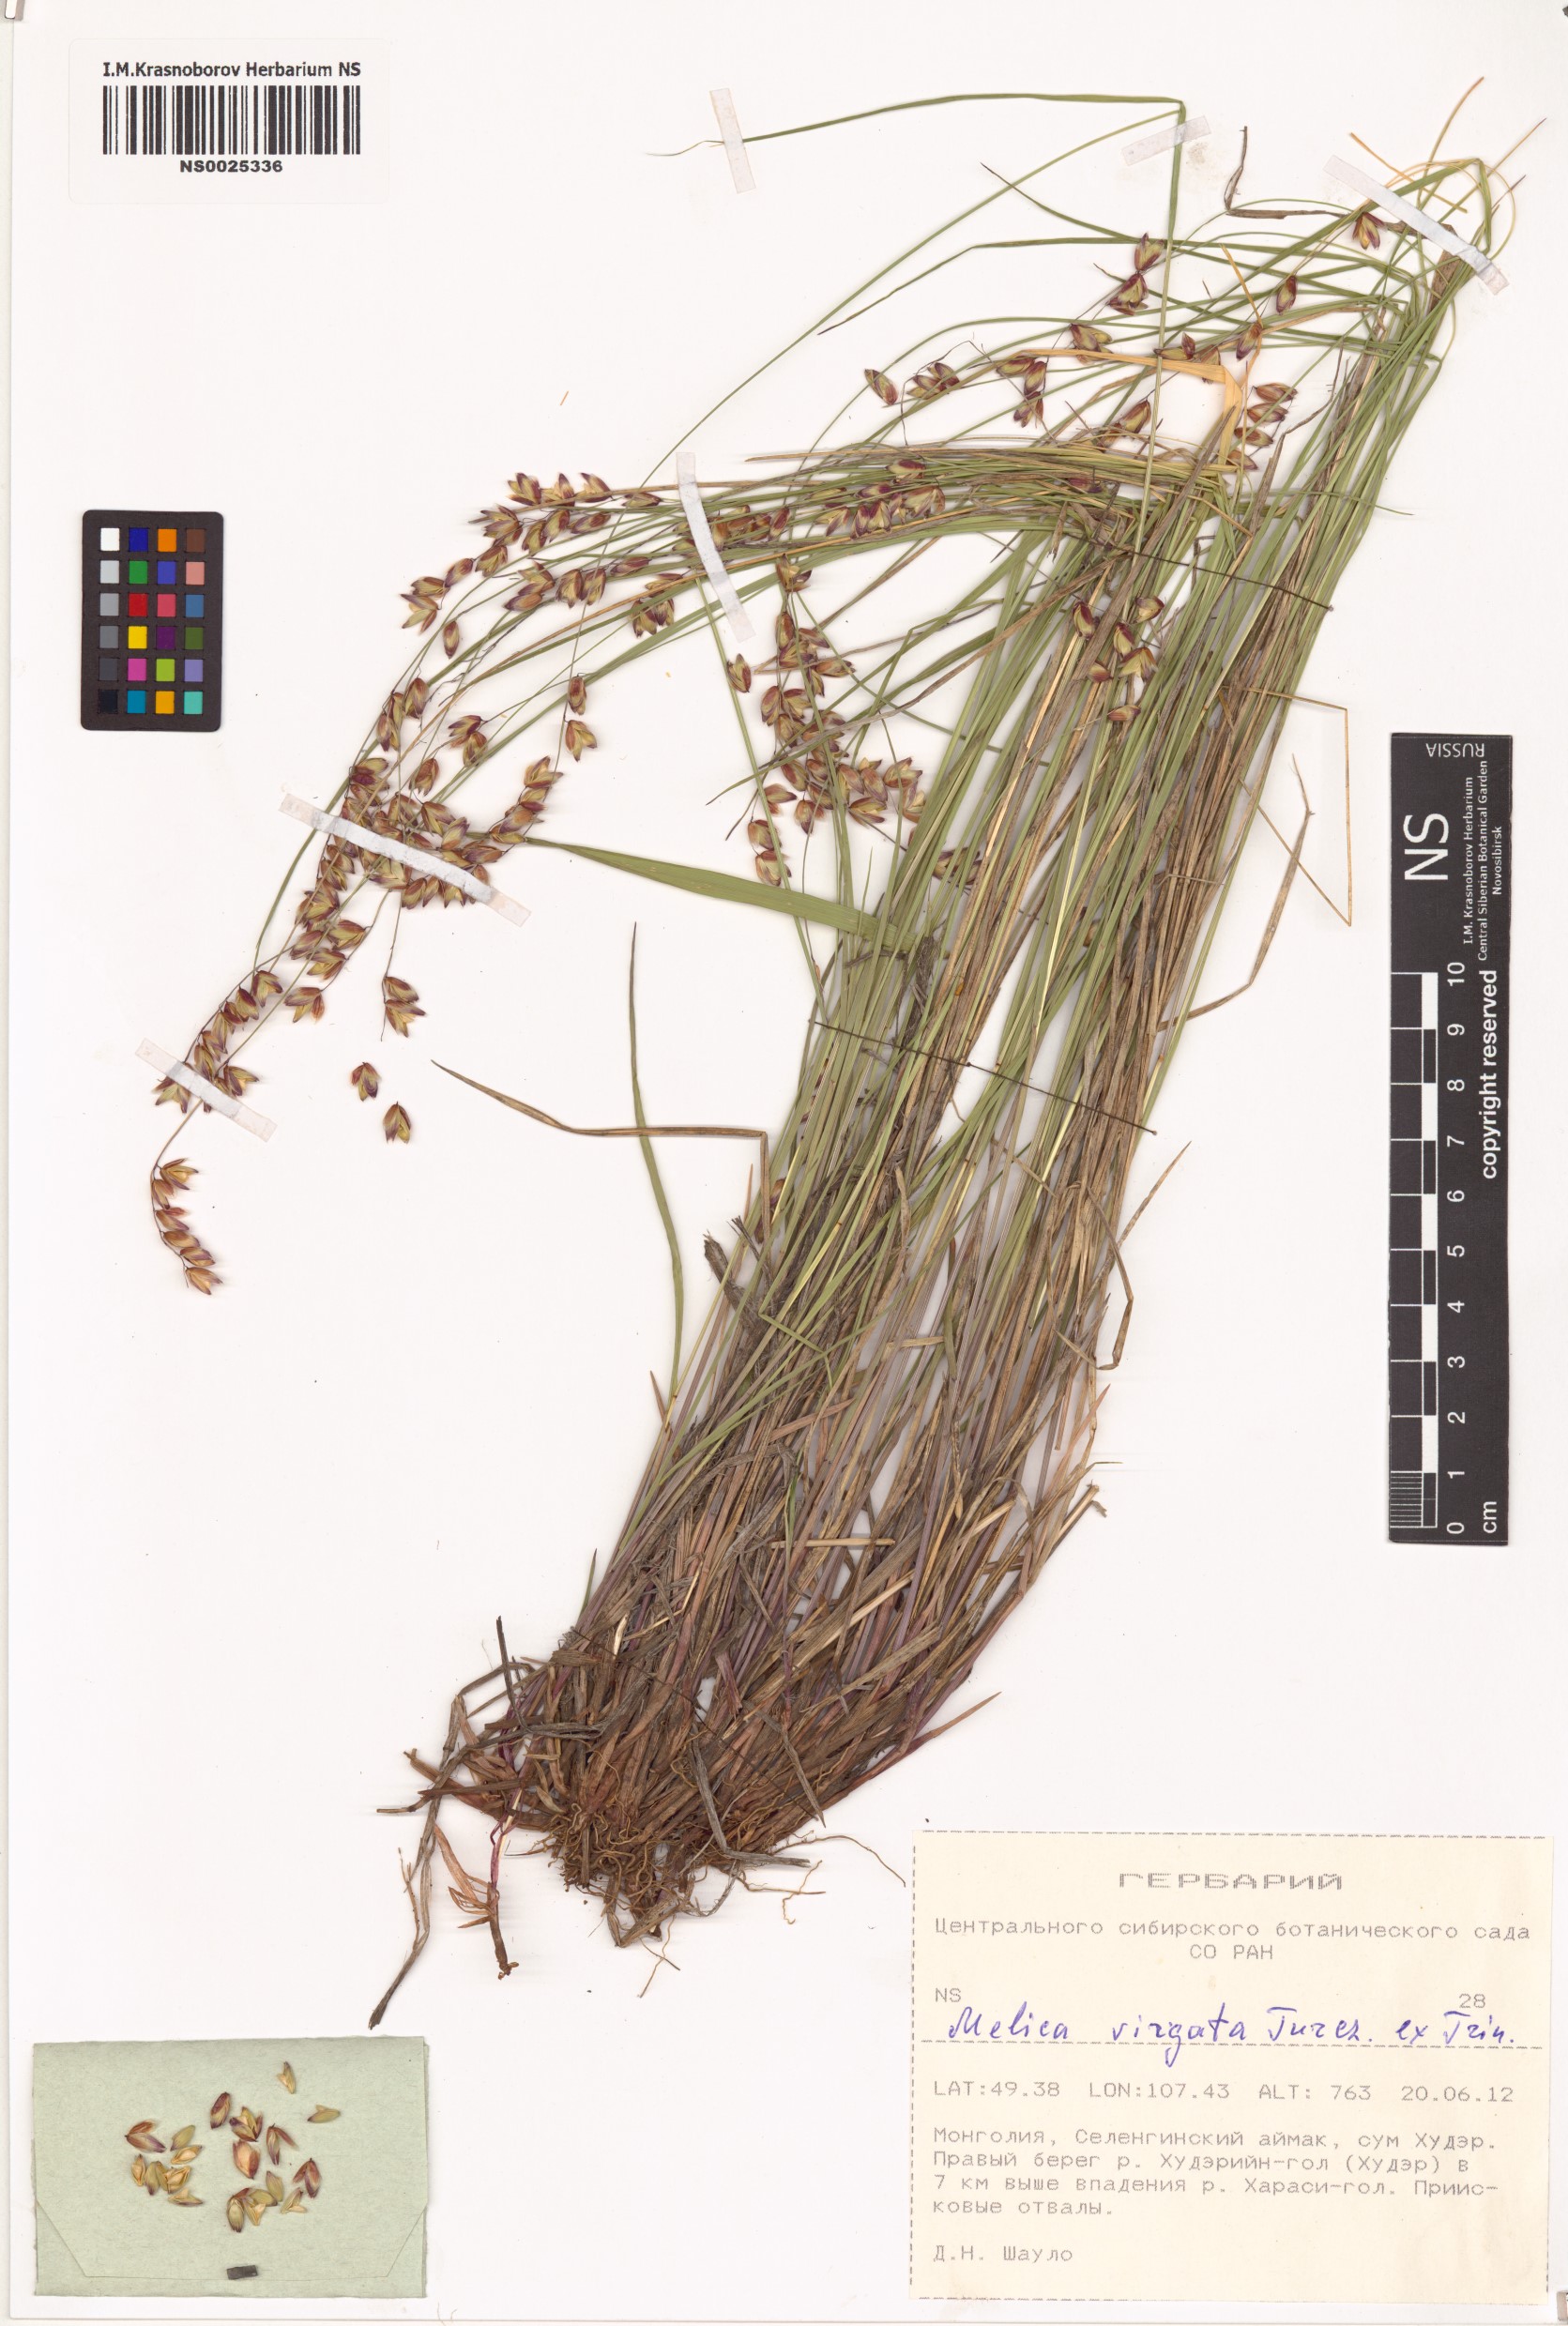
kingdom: Plantae
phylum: Tracheophyta
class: Liliopsida
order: Poales
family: Poaceae
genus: Melica
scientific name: Melica virgata
